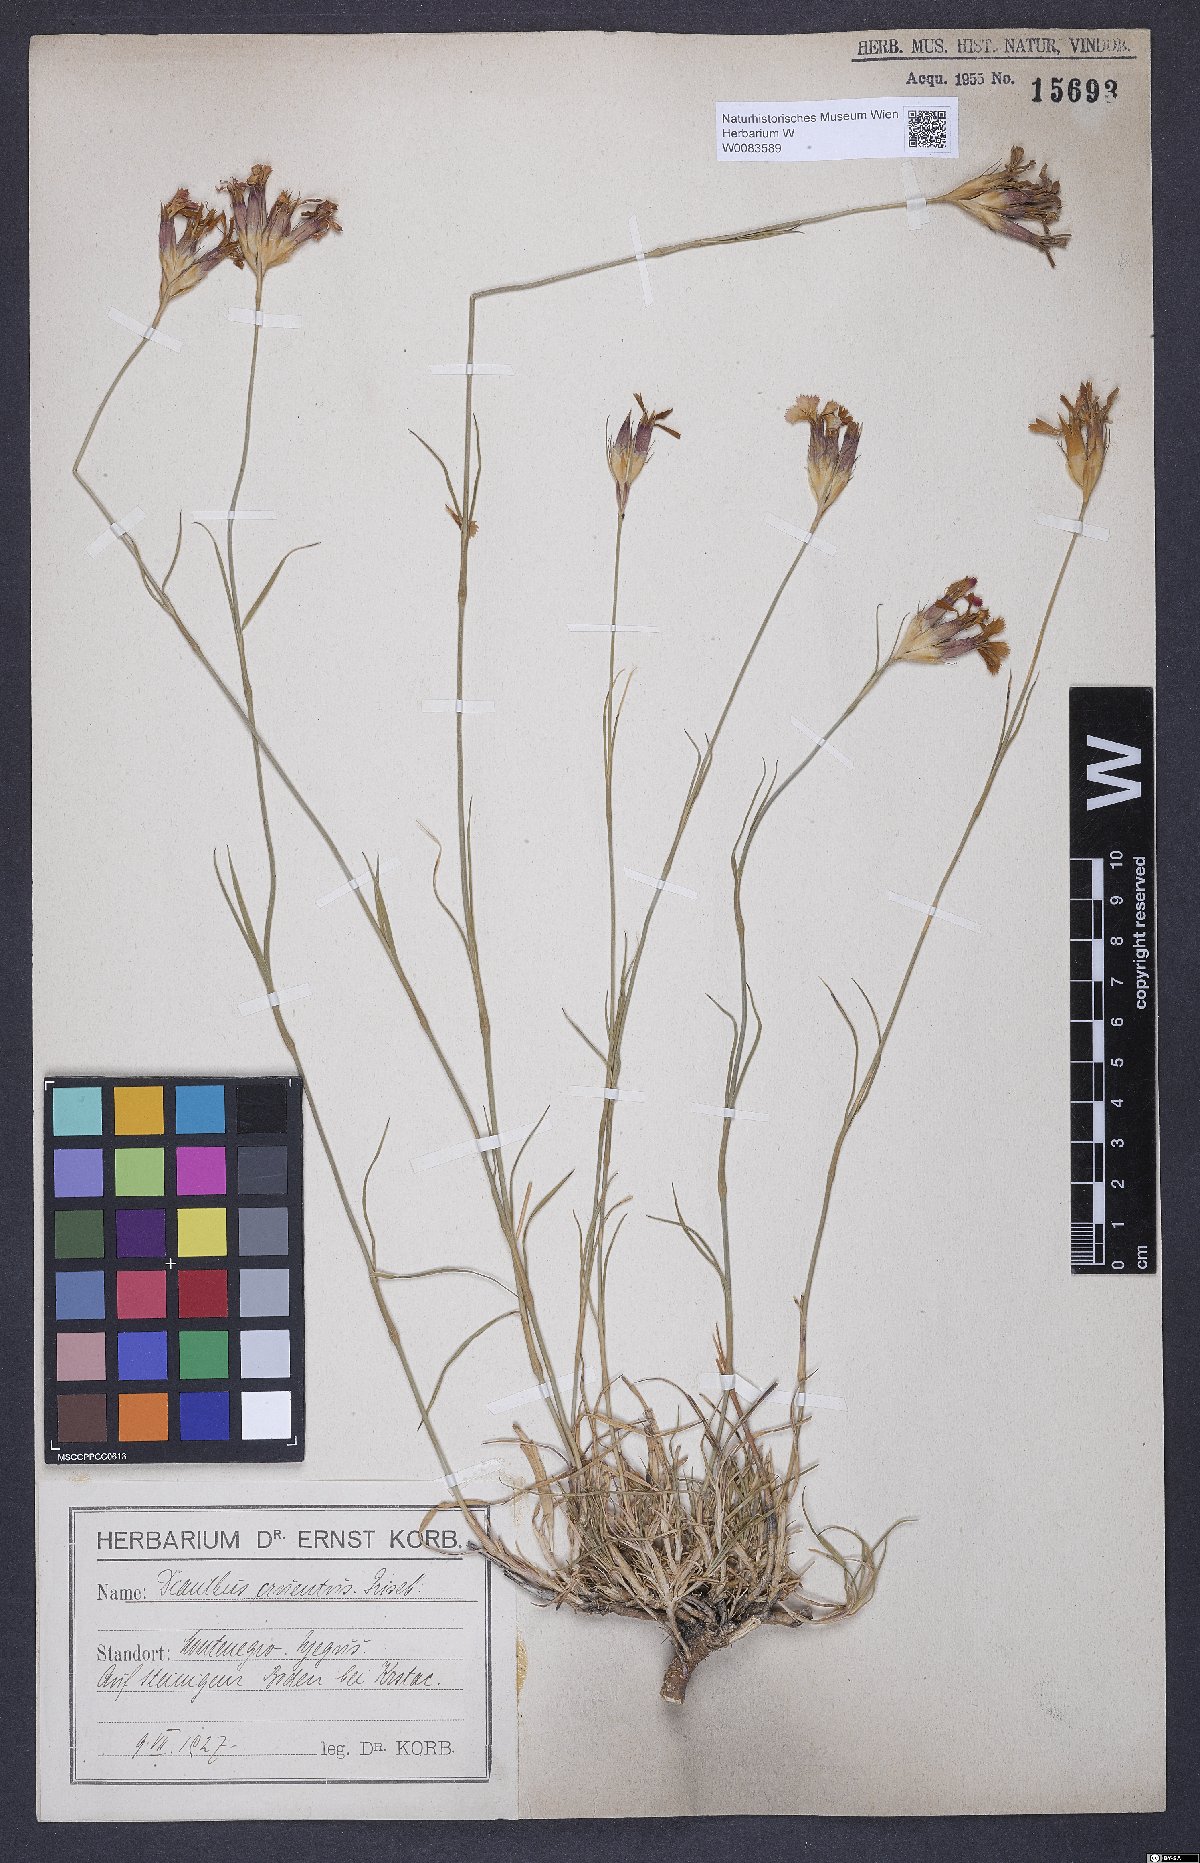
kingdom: Plantae
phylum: Tracheophyta
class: Magnoliopsida
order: Caryophyllales
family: Caryophyllaceae
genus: Dianthus
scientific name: Dianthus cruentus
